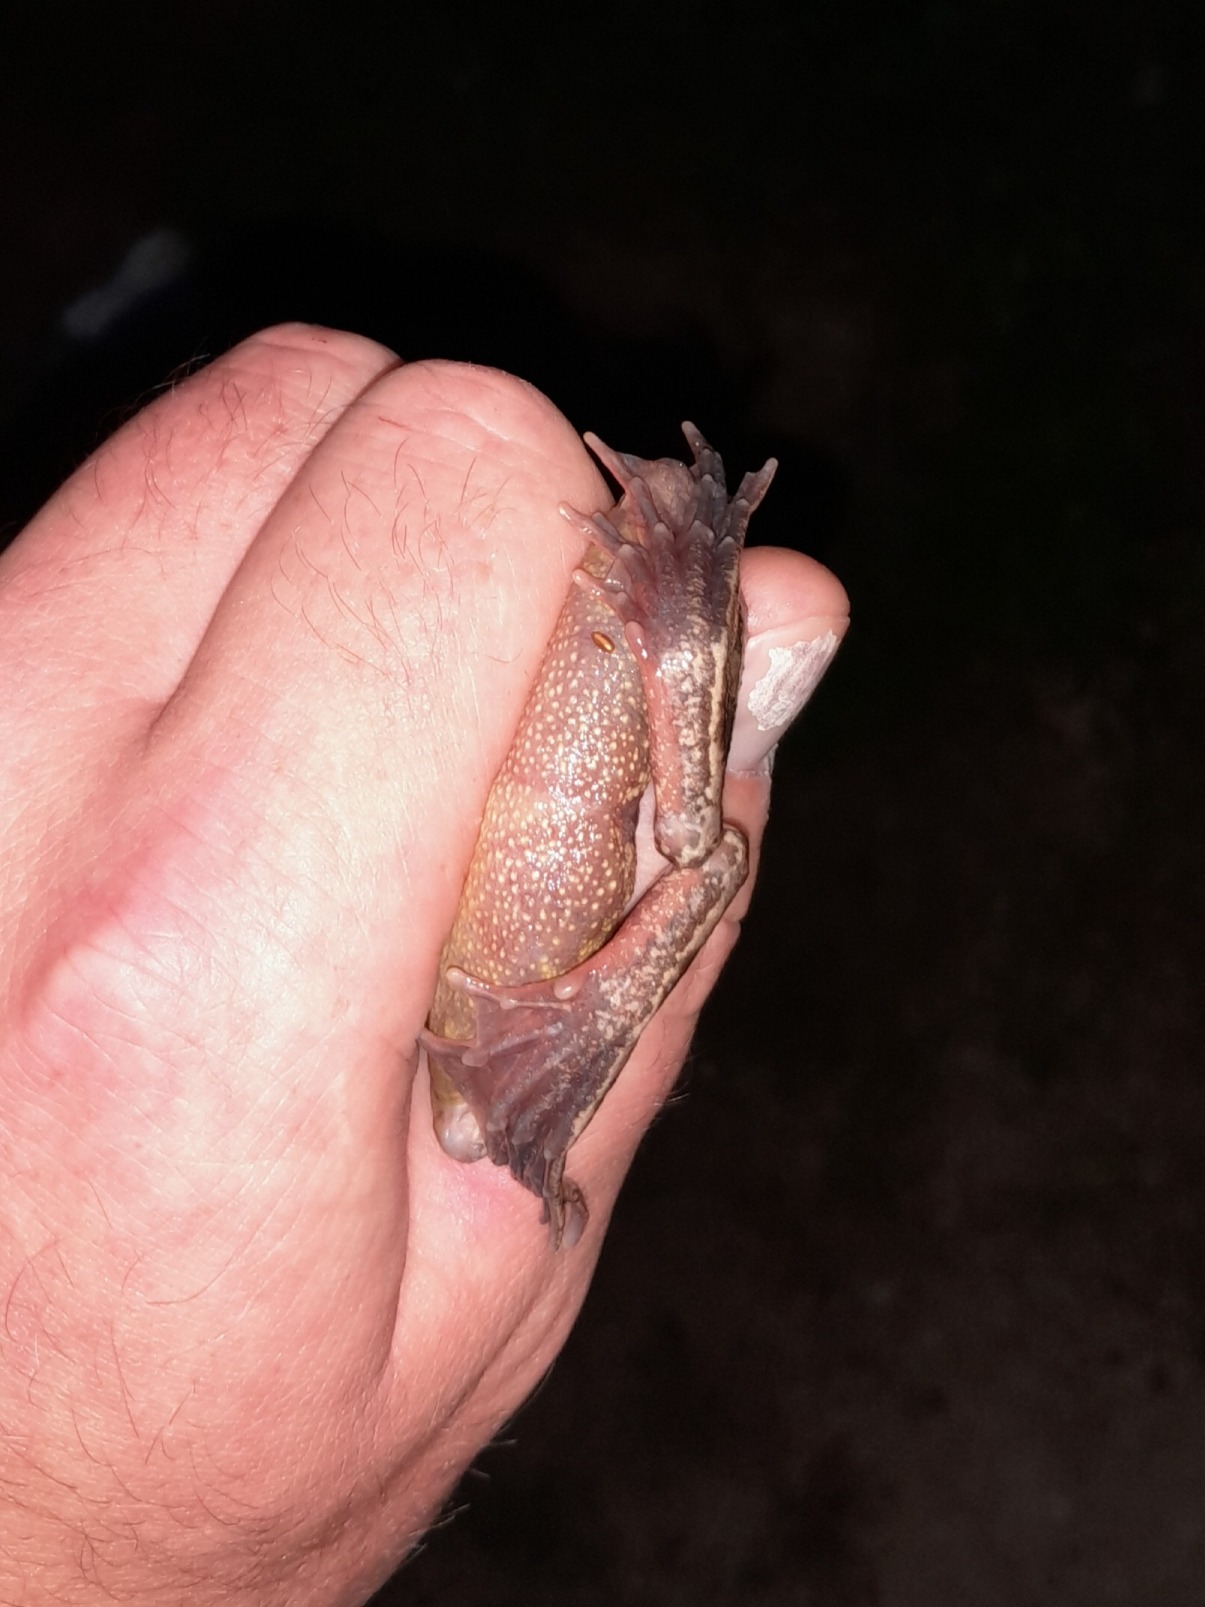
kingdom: Animalia
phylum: Chordata
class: Amphibia
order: Anura
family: Ranidae
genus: Rana
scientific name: Rana temporaria
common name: Butsnudet frø
